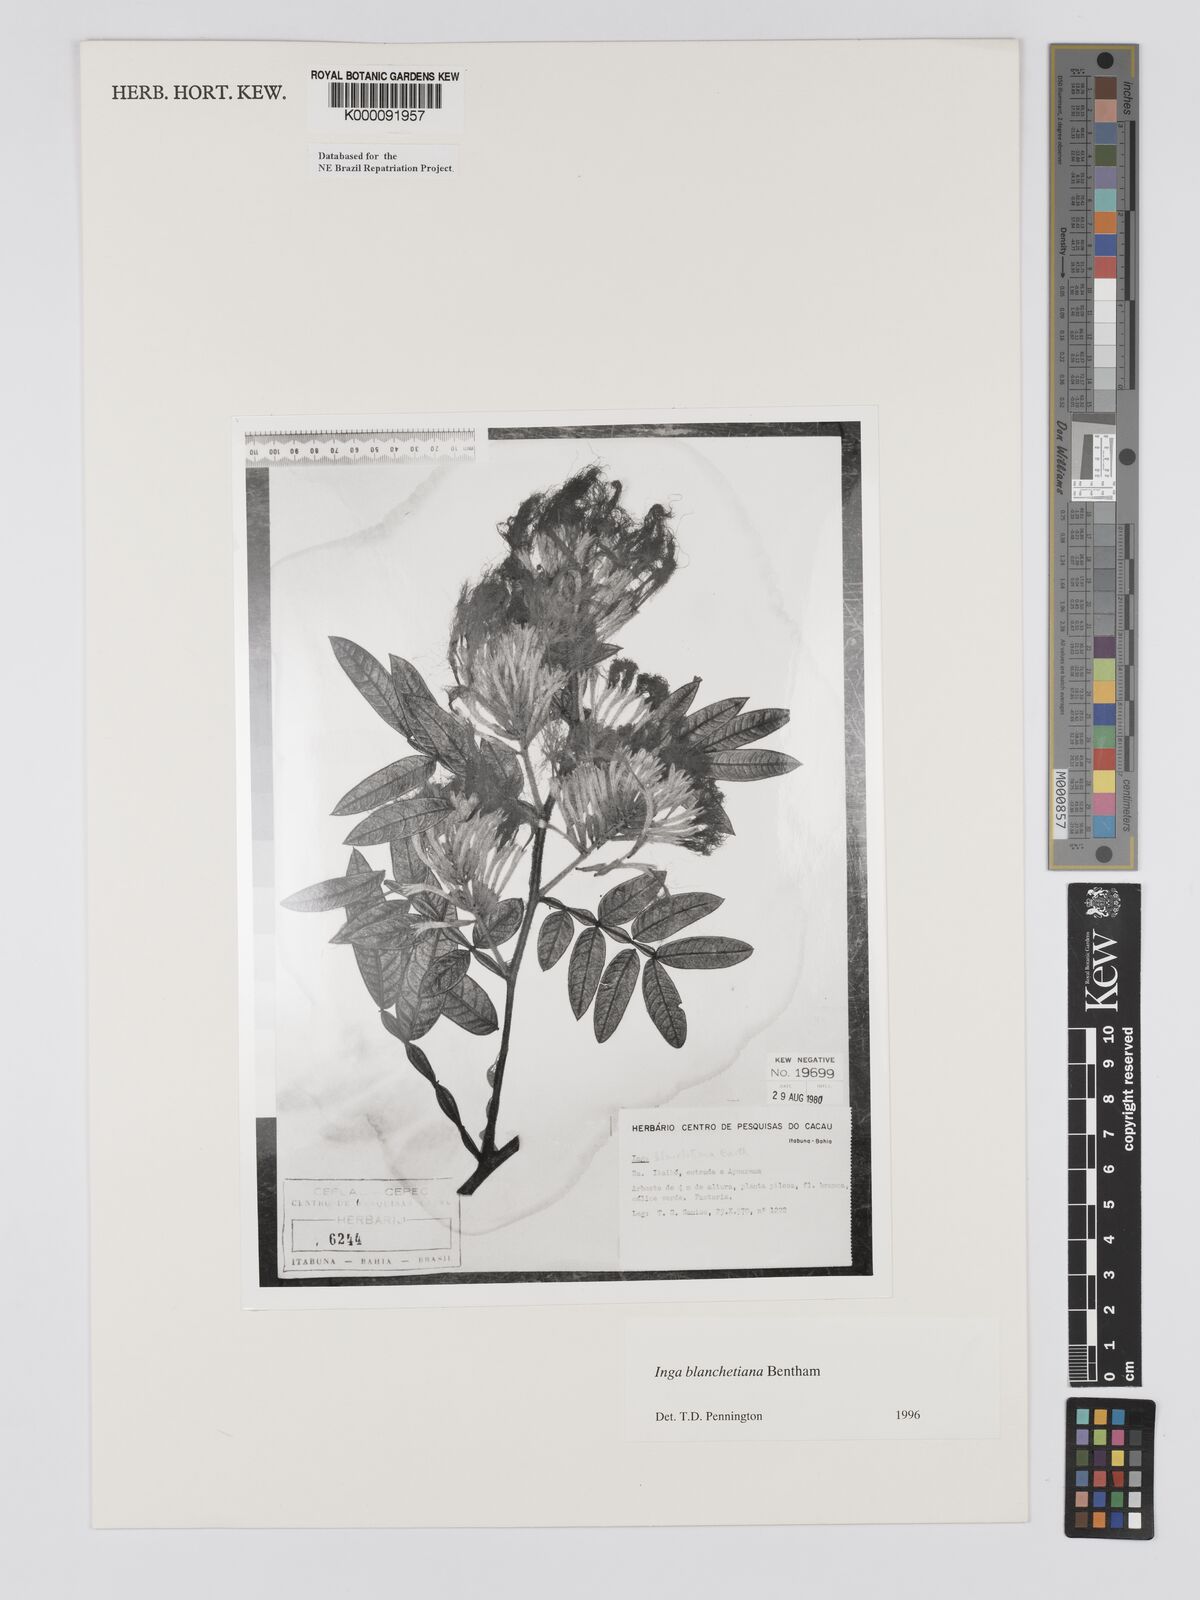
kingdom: Plantae
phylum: Tracheophyta
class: Magnoliopsida
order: Fabales
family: Fabaceae
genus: Inga
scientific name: Inga blanchetiana
